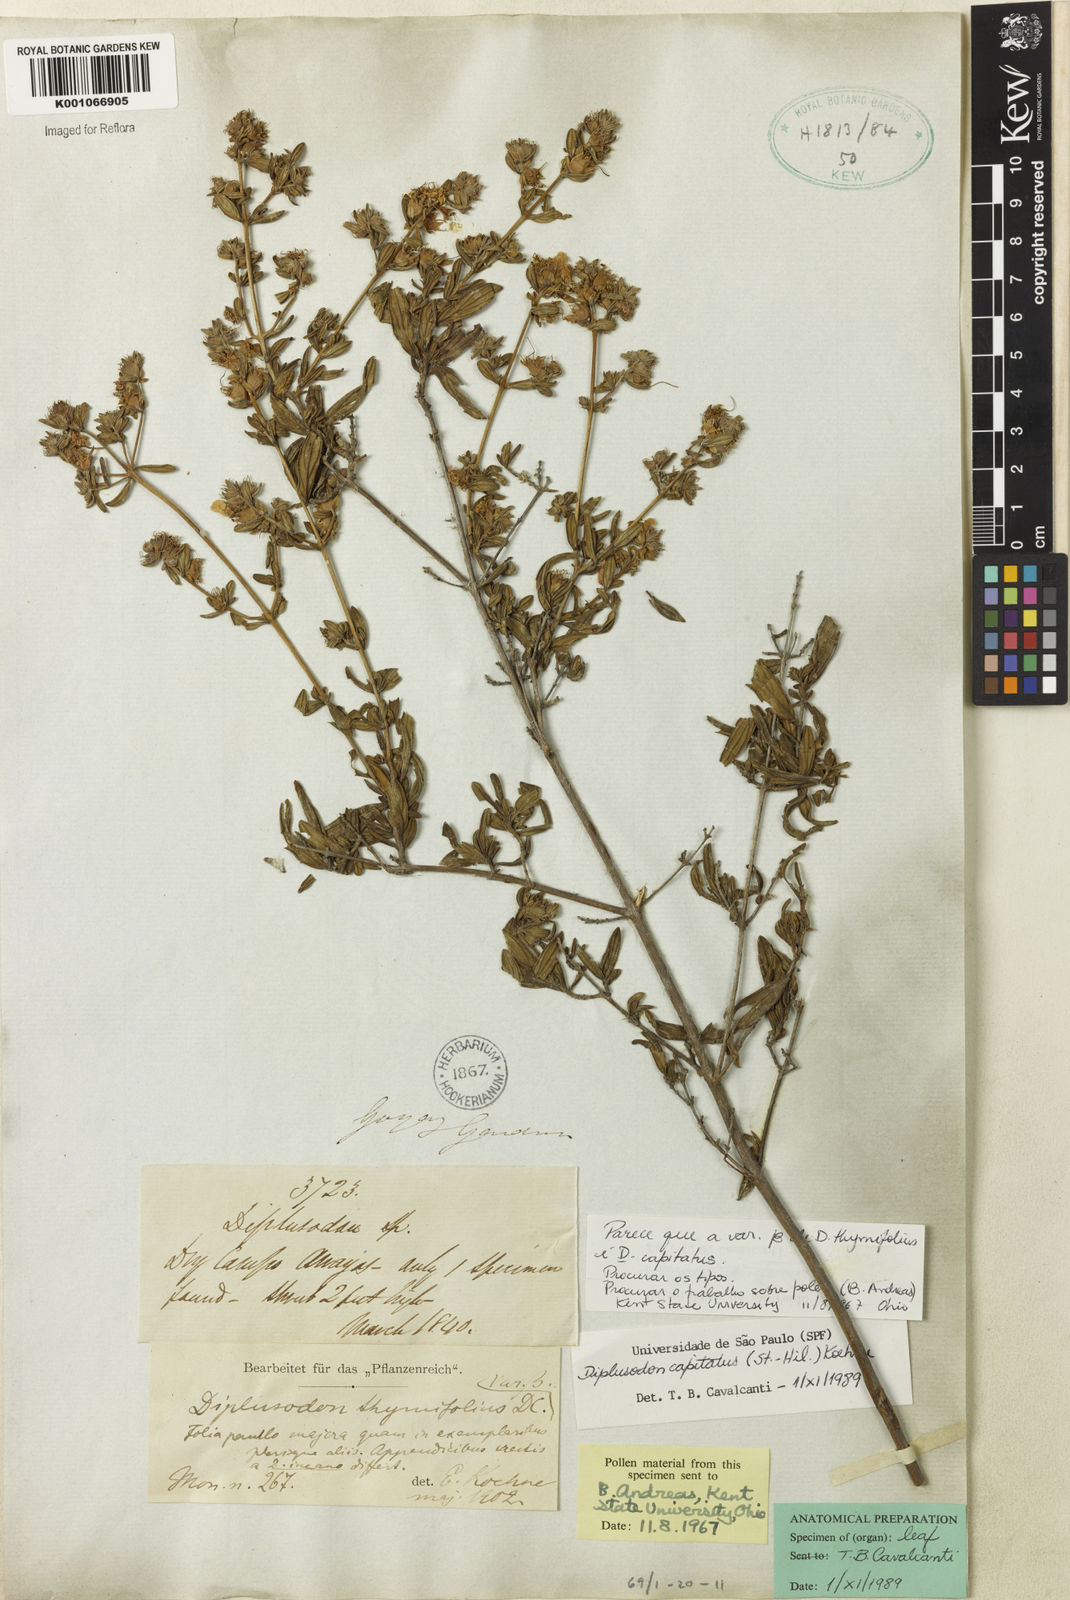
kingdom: Plantae
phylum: Tracheophyta
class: Magnoliopsida
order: Myrtales
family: Lythraceae
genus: Diplusodon
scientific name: Diplusodon capitatus
